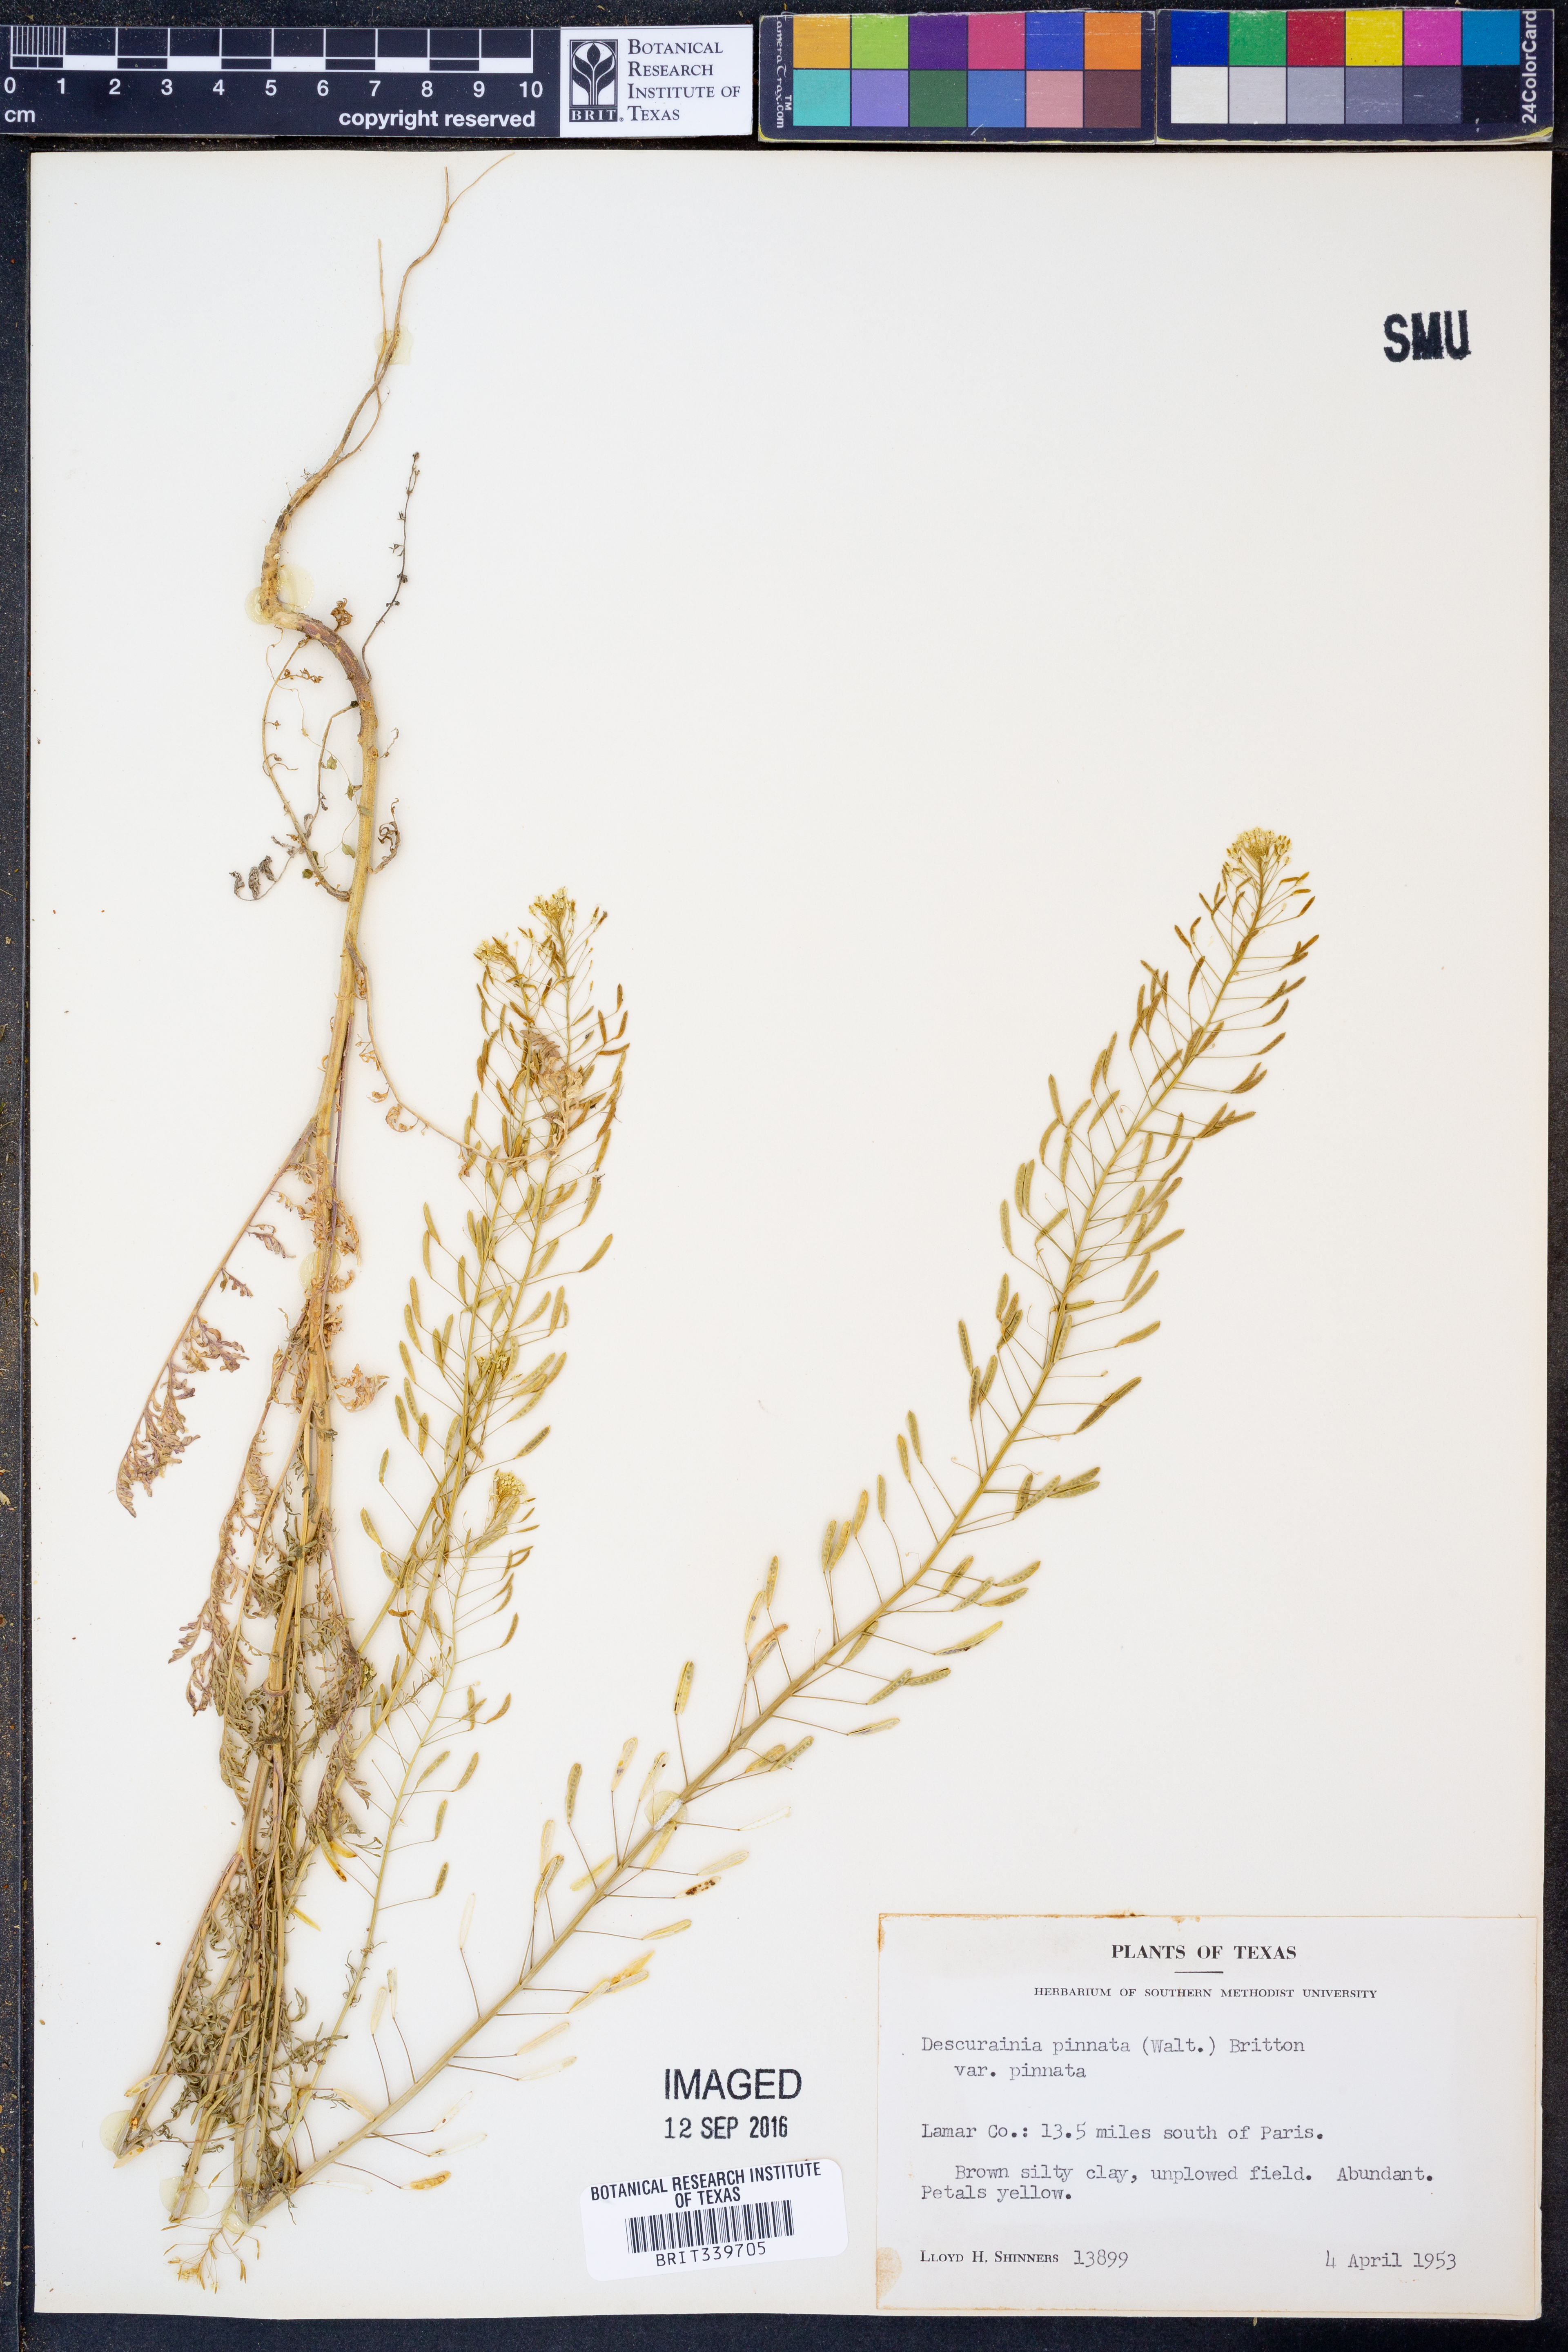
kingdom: Plantae
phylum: Tracheophyta
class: Magnoliopsida
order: Brassicales
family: Brassicaceae
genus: Descurainia
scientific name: Descurainia pinnata
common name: Western tansy mustard
